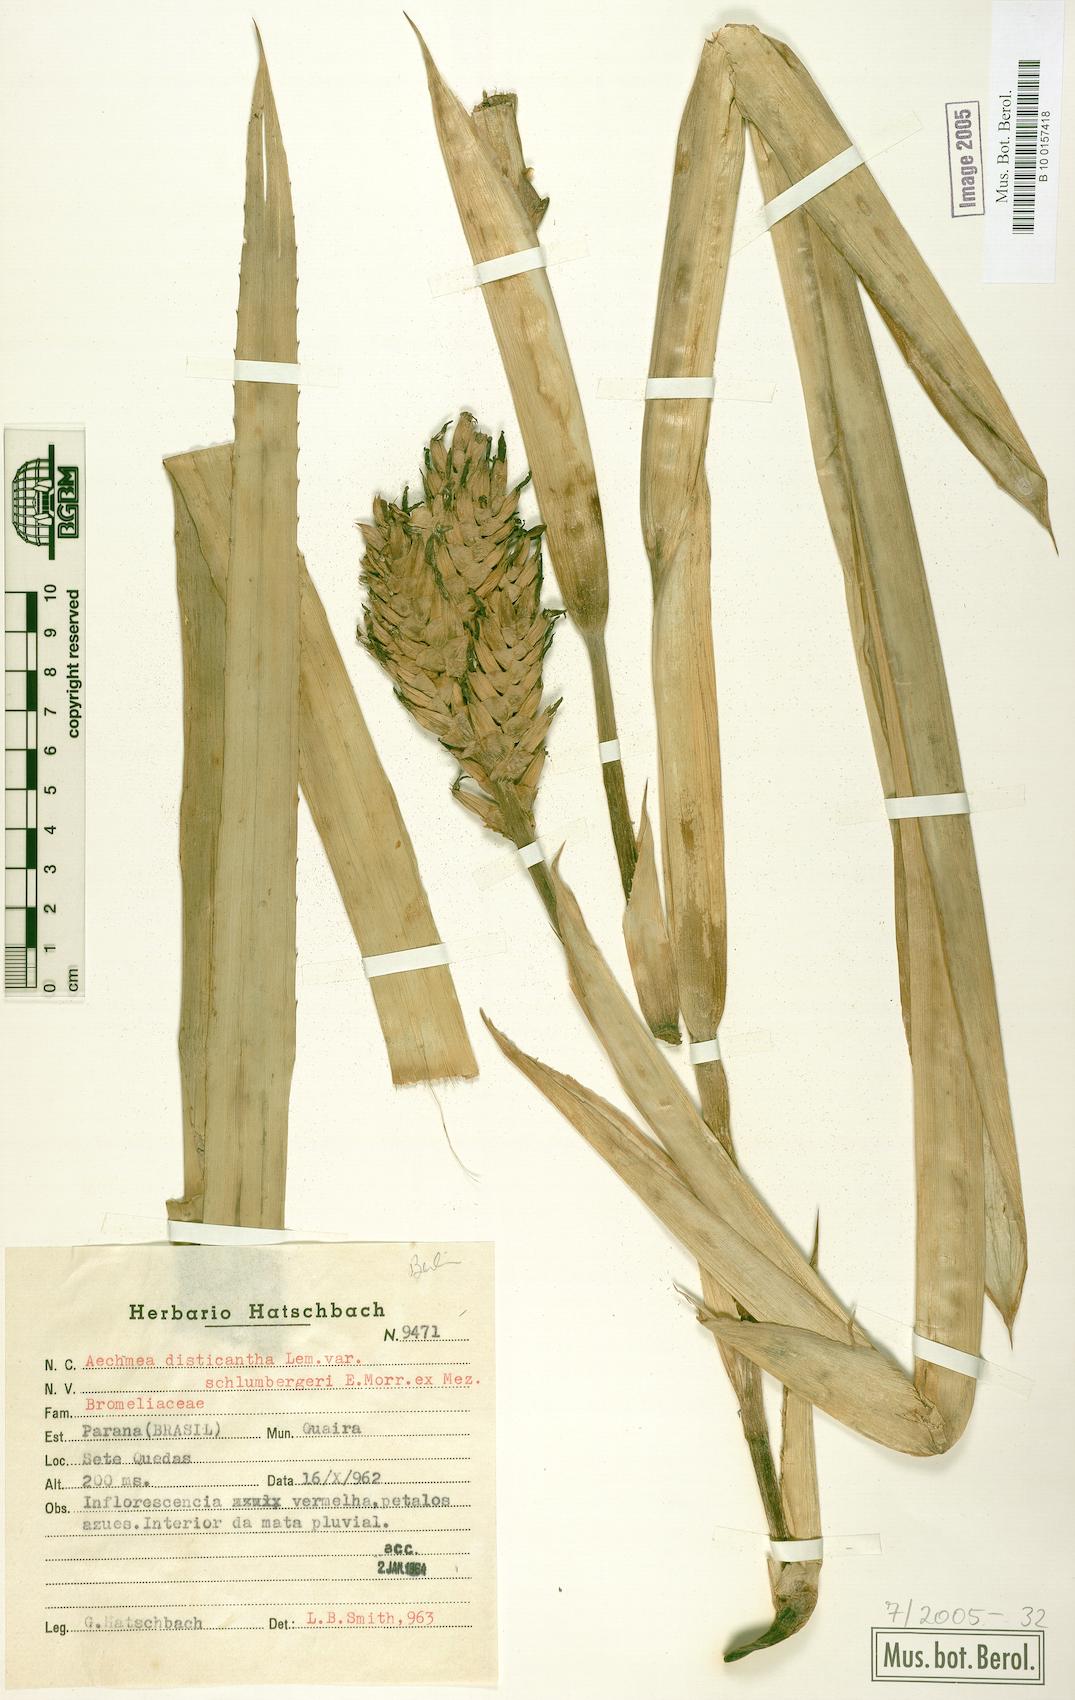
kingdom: Plantae
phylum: Tracheophyta
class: Liliopsida
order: Poales
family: Bromeliaceae
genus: Aechmea
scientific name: Aechmea distichantha
